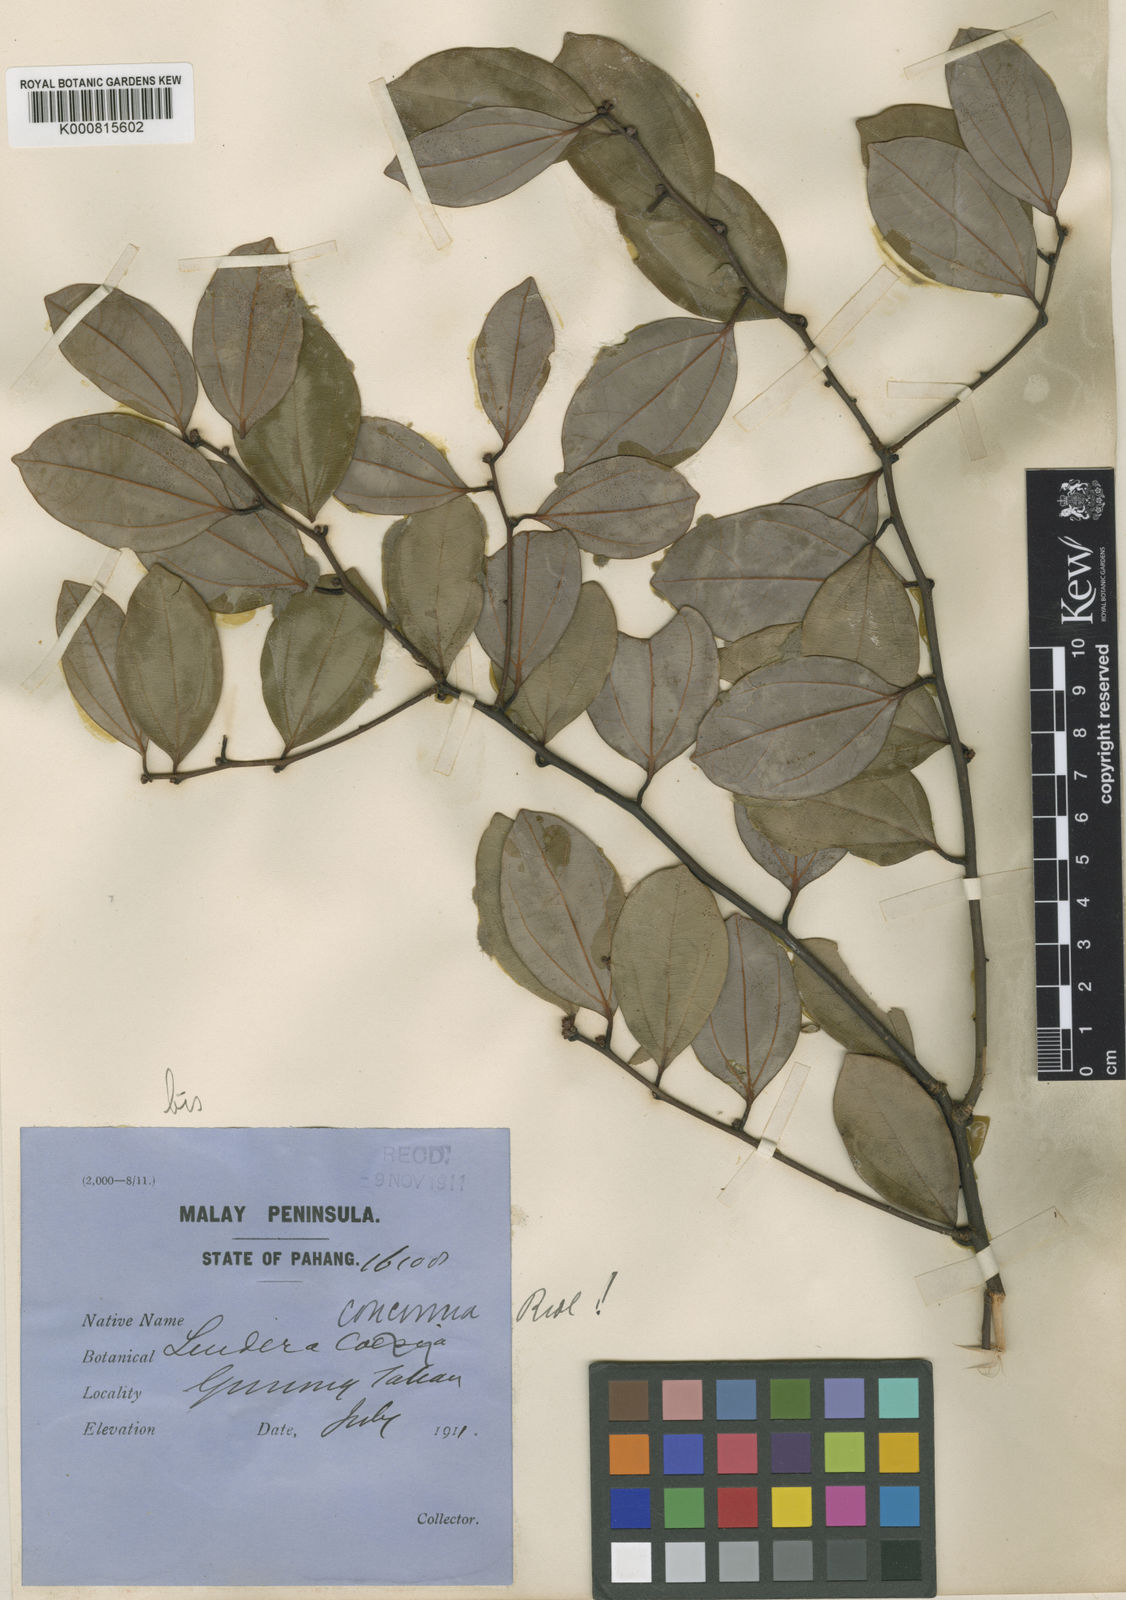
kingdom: Plantae
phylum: Tracheophyta
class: Magnoliopsida
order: Laurales
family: Lauraceae
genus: Lindera
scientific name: Lindera concinna
